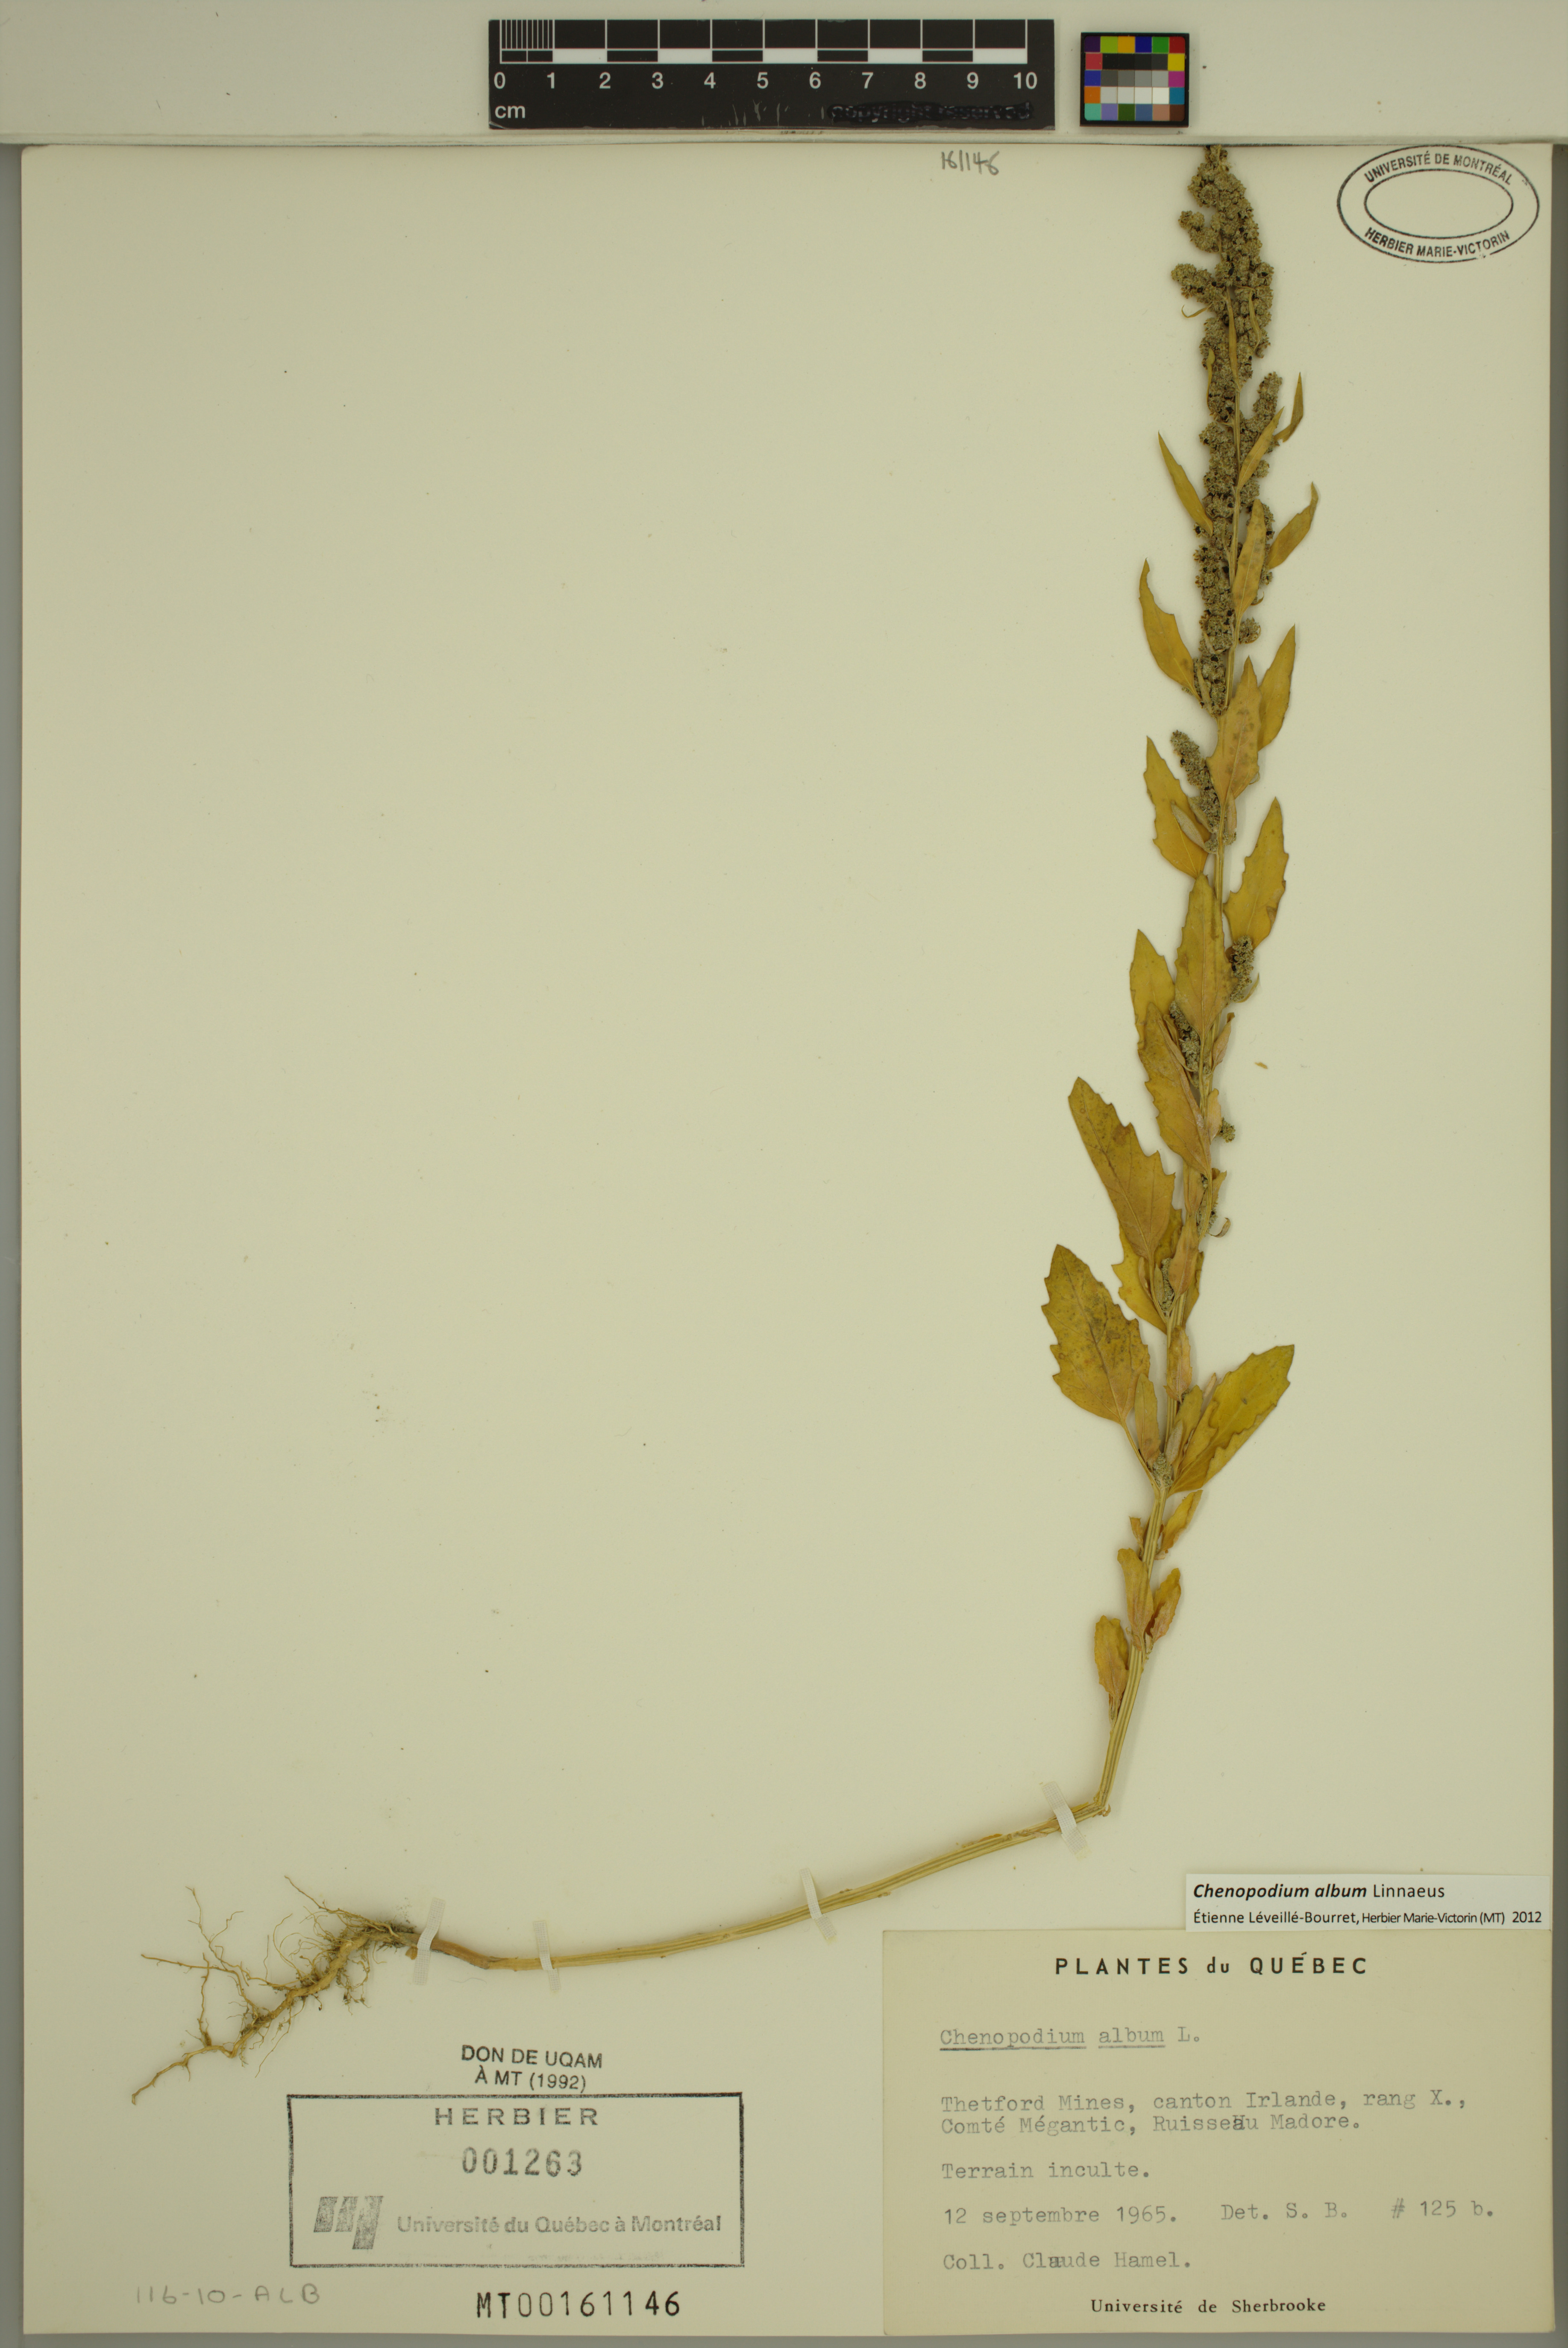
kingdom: Plantae
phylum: Tracheophyta
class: Magnoliopsida
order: Caryophyllales
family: Amaranthaceae
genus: Chenopodium
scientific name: Chenopodium album
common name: Fat-hen
